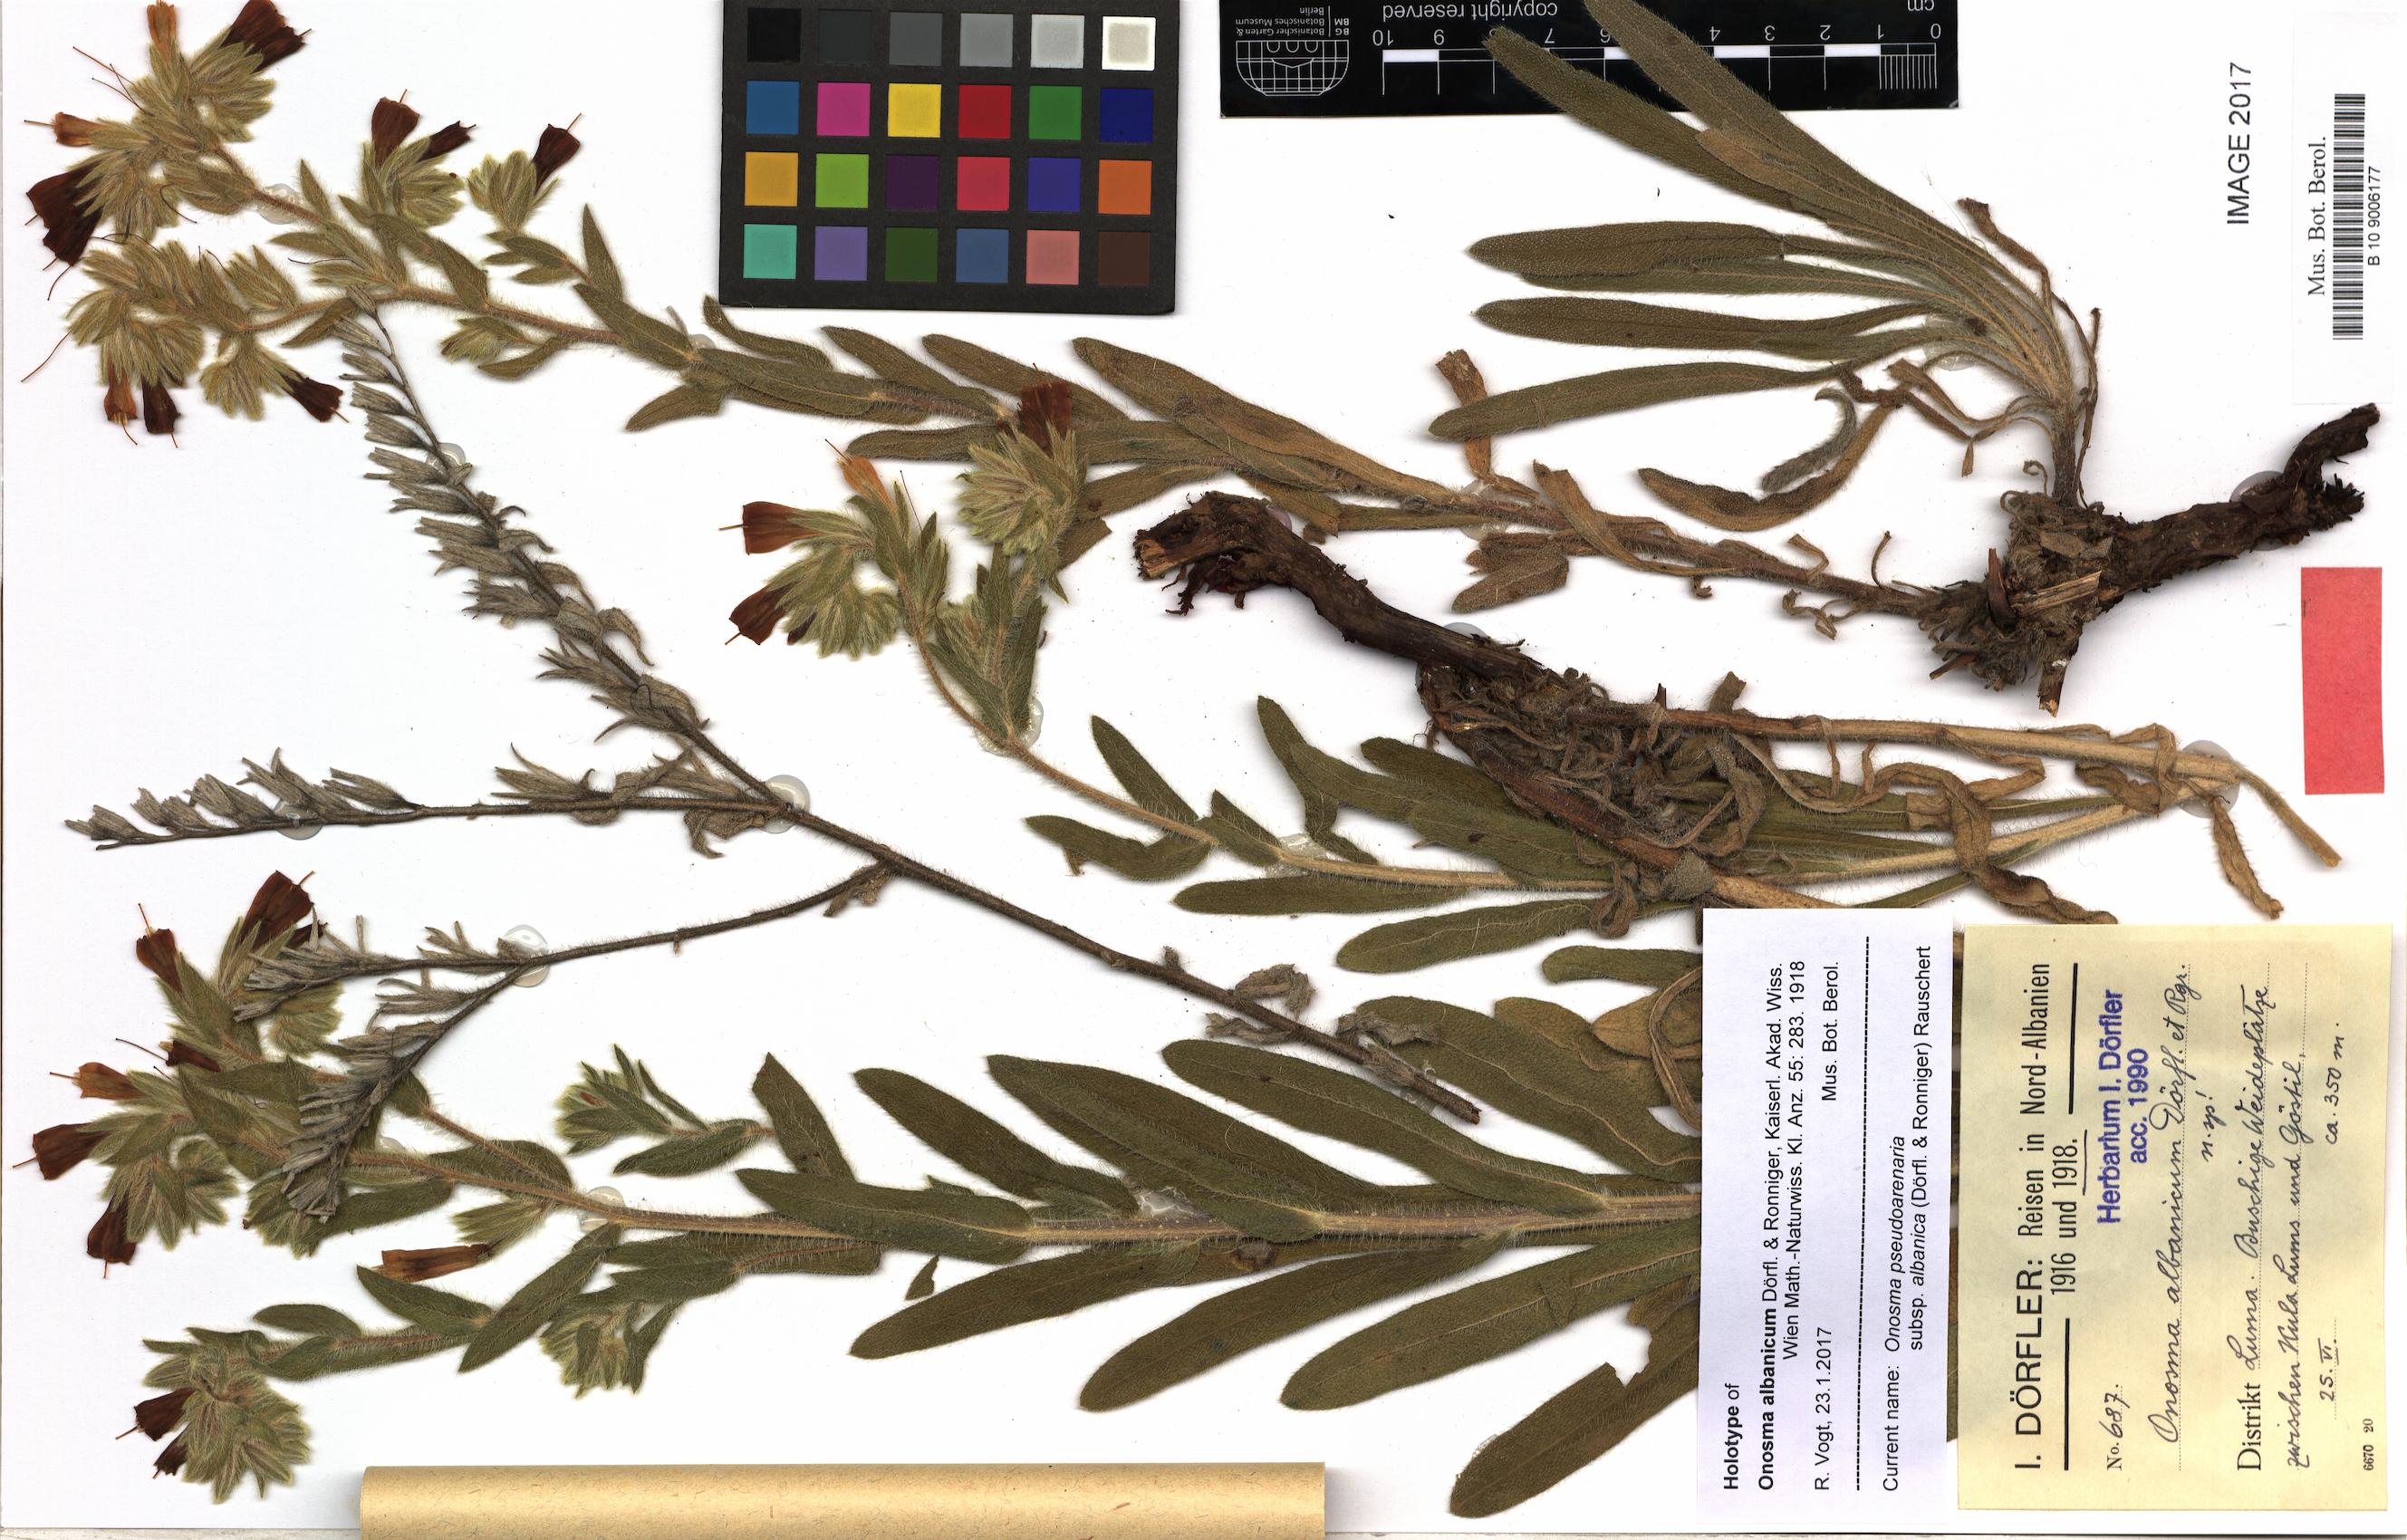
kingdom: Plantae
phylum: Tracheophyta
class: Magnoliopsida
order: Boraginales
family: Boraginaceae
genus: Onosma
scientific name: Onosma pseudoarenaria
